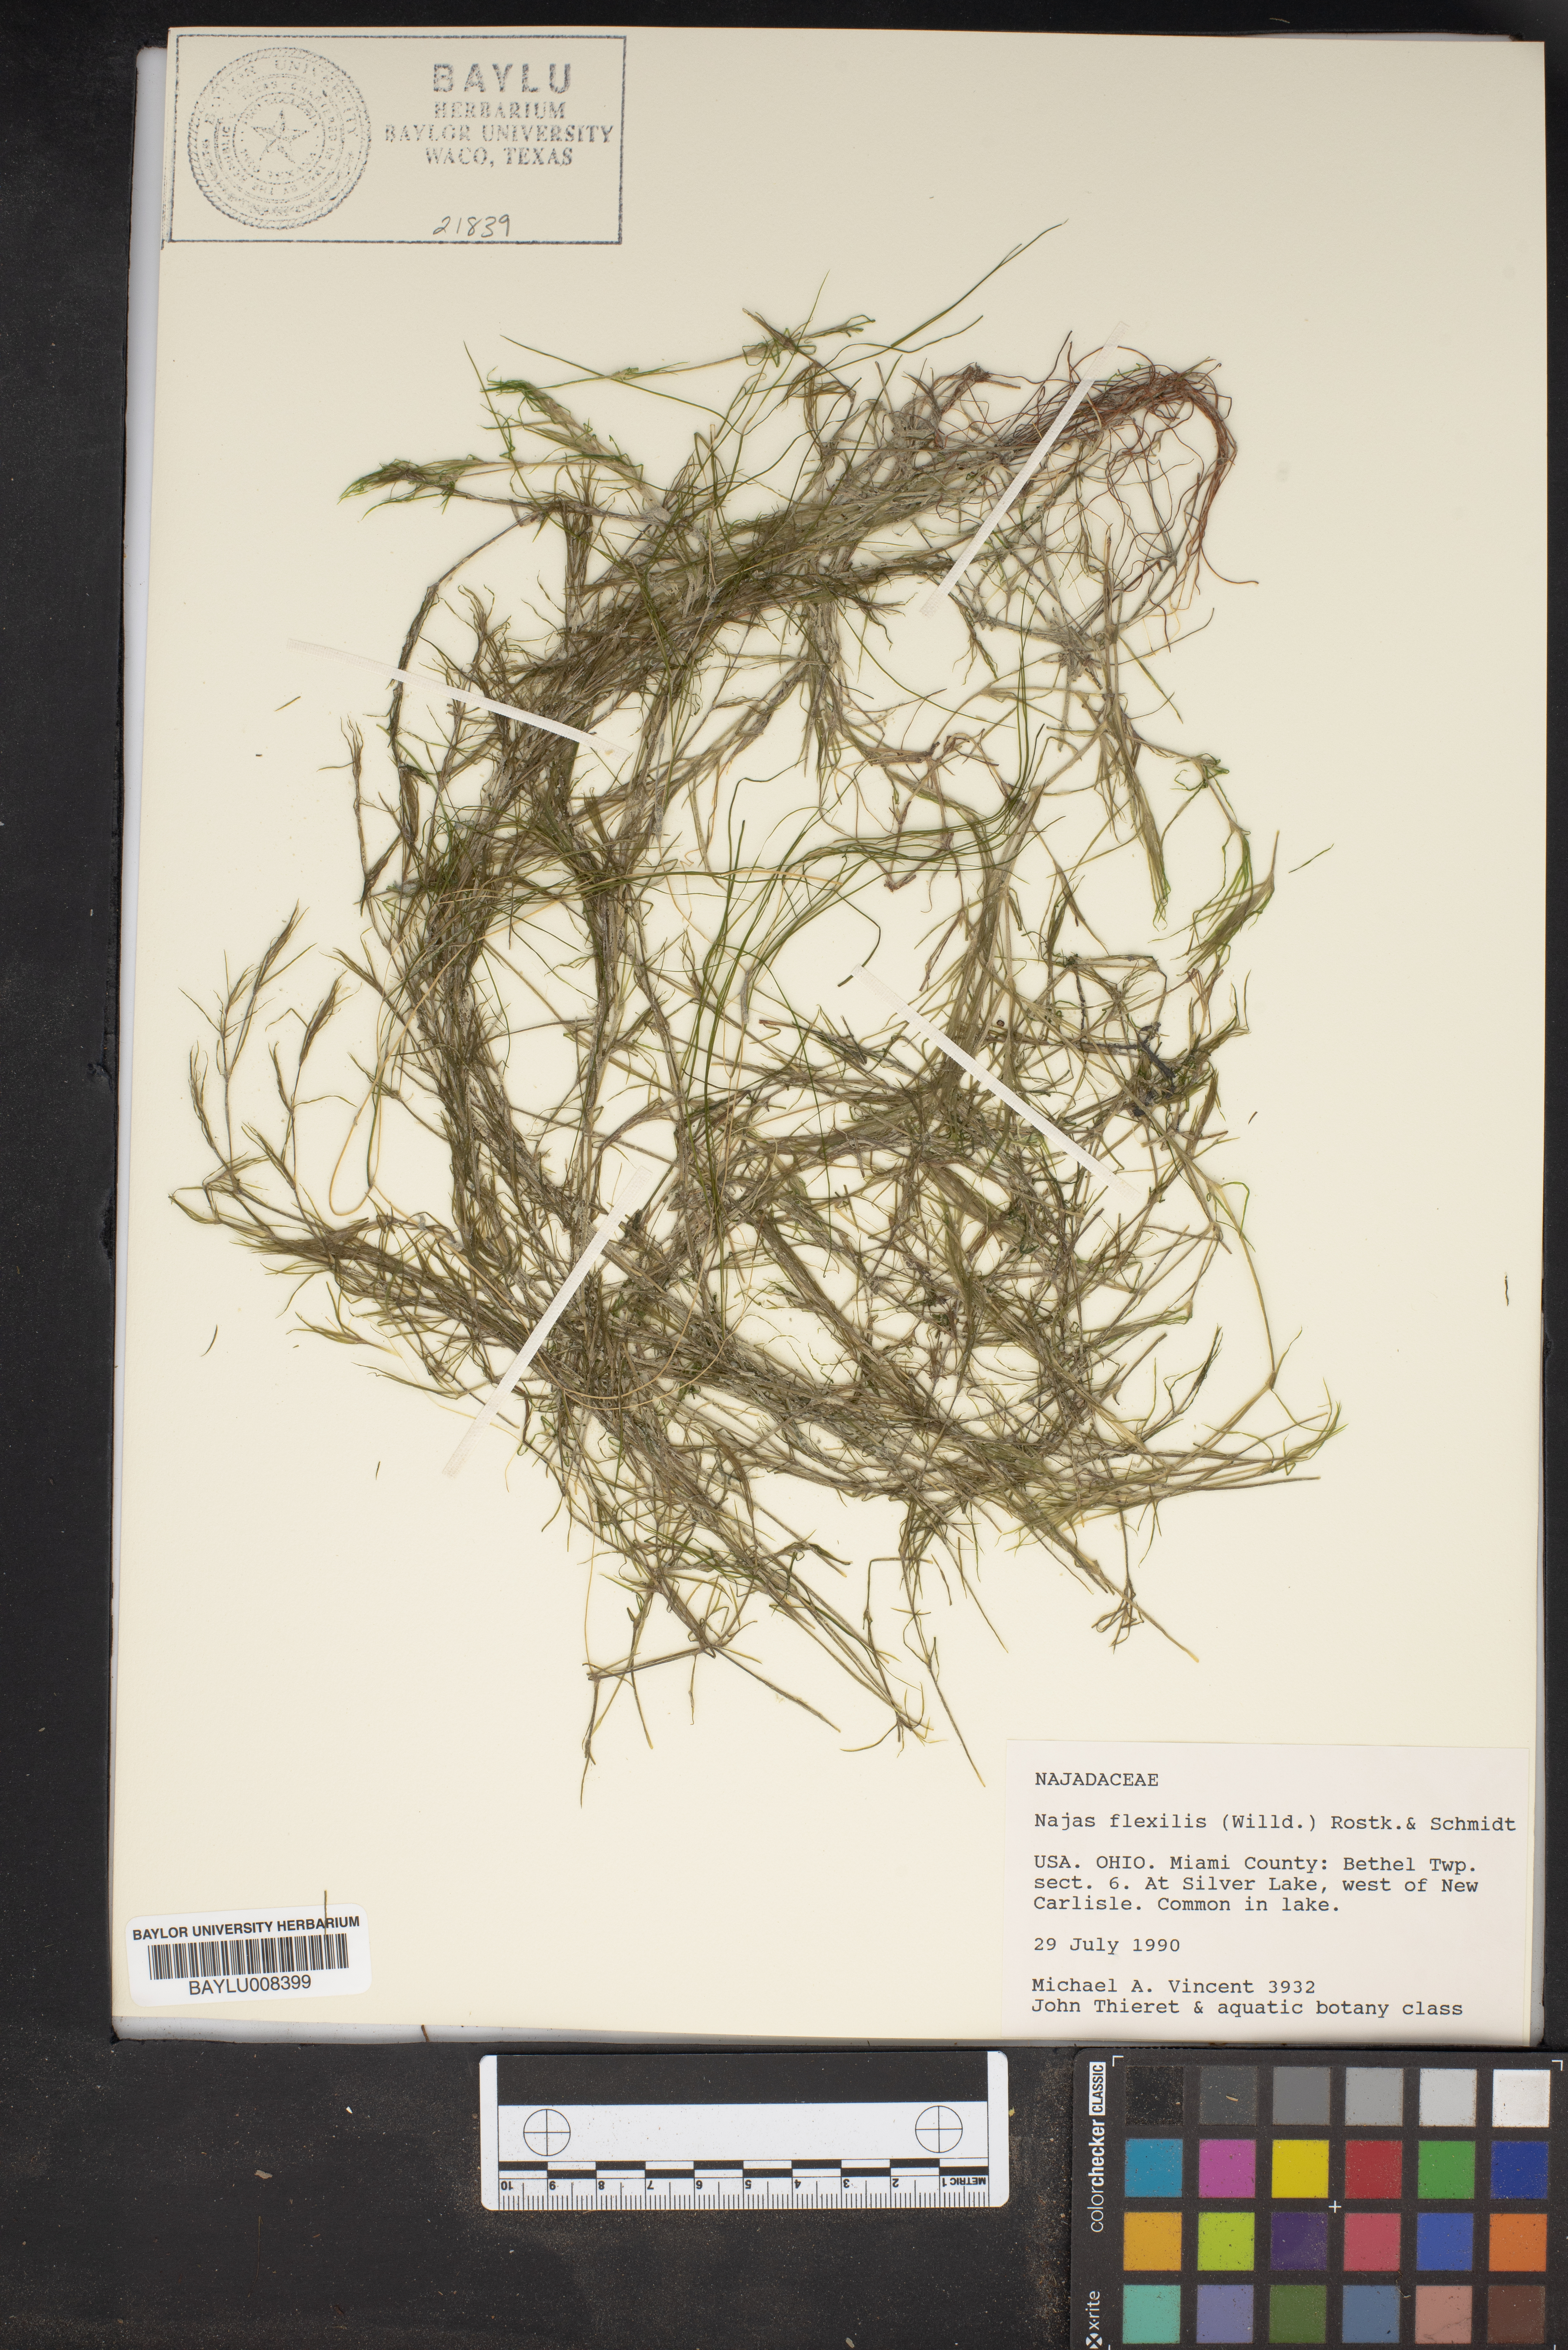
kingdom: Plantae
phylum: Tracheophyta
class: Liliopsida
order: Alismatales
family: Hydrocharitaceae
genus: Najas
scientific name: Najas flexilis
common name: Slender naiad
